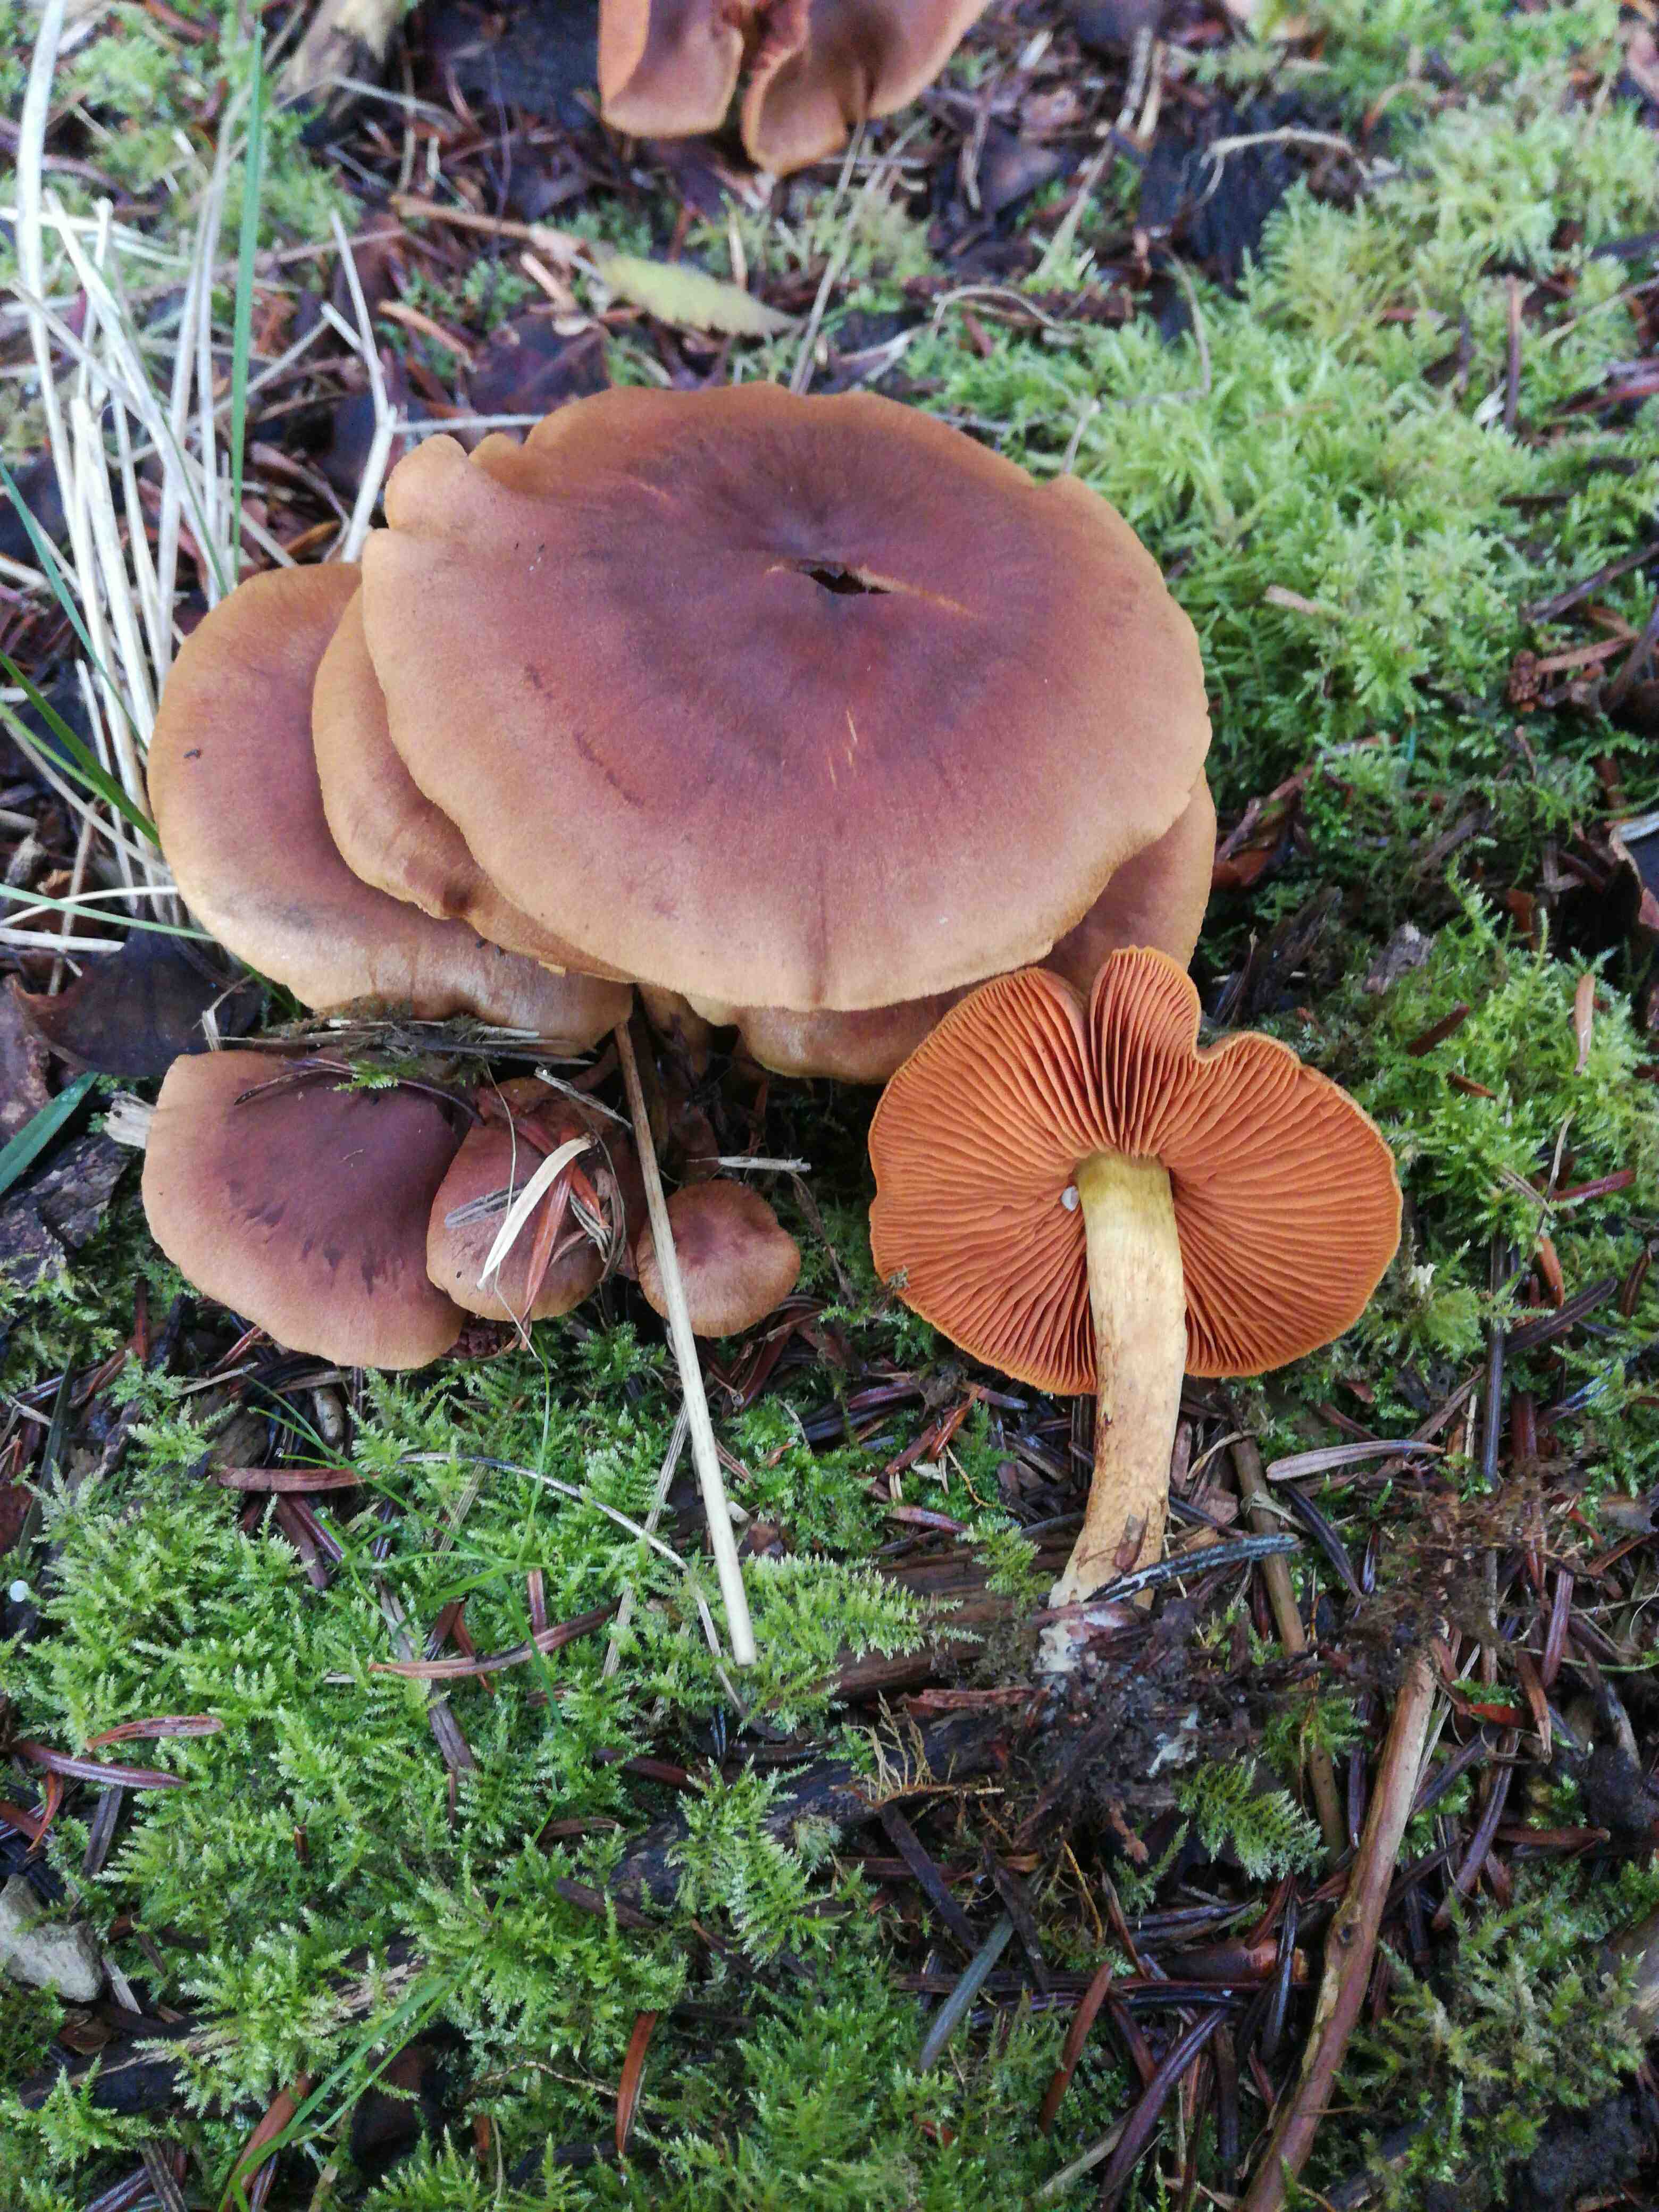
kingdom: Fungi
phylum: Basidiomycota
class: Agaricomycetes
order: Agaricales
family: Cortinariaceae
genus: Cortinarius
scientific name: Cortinarius cinnamomeus
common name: kanel-slørhat
